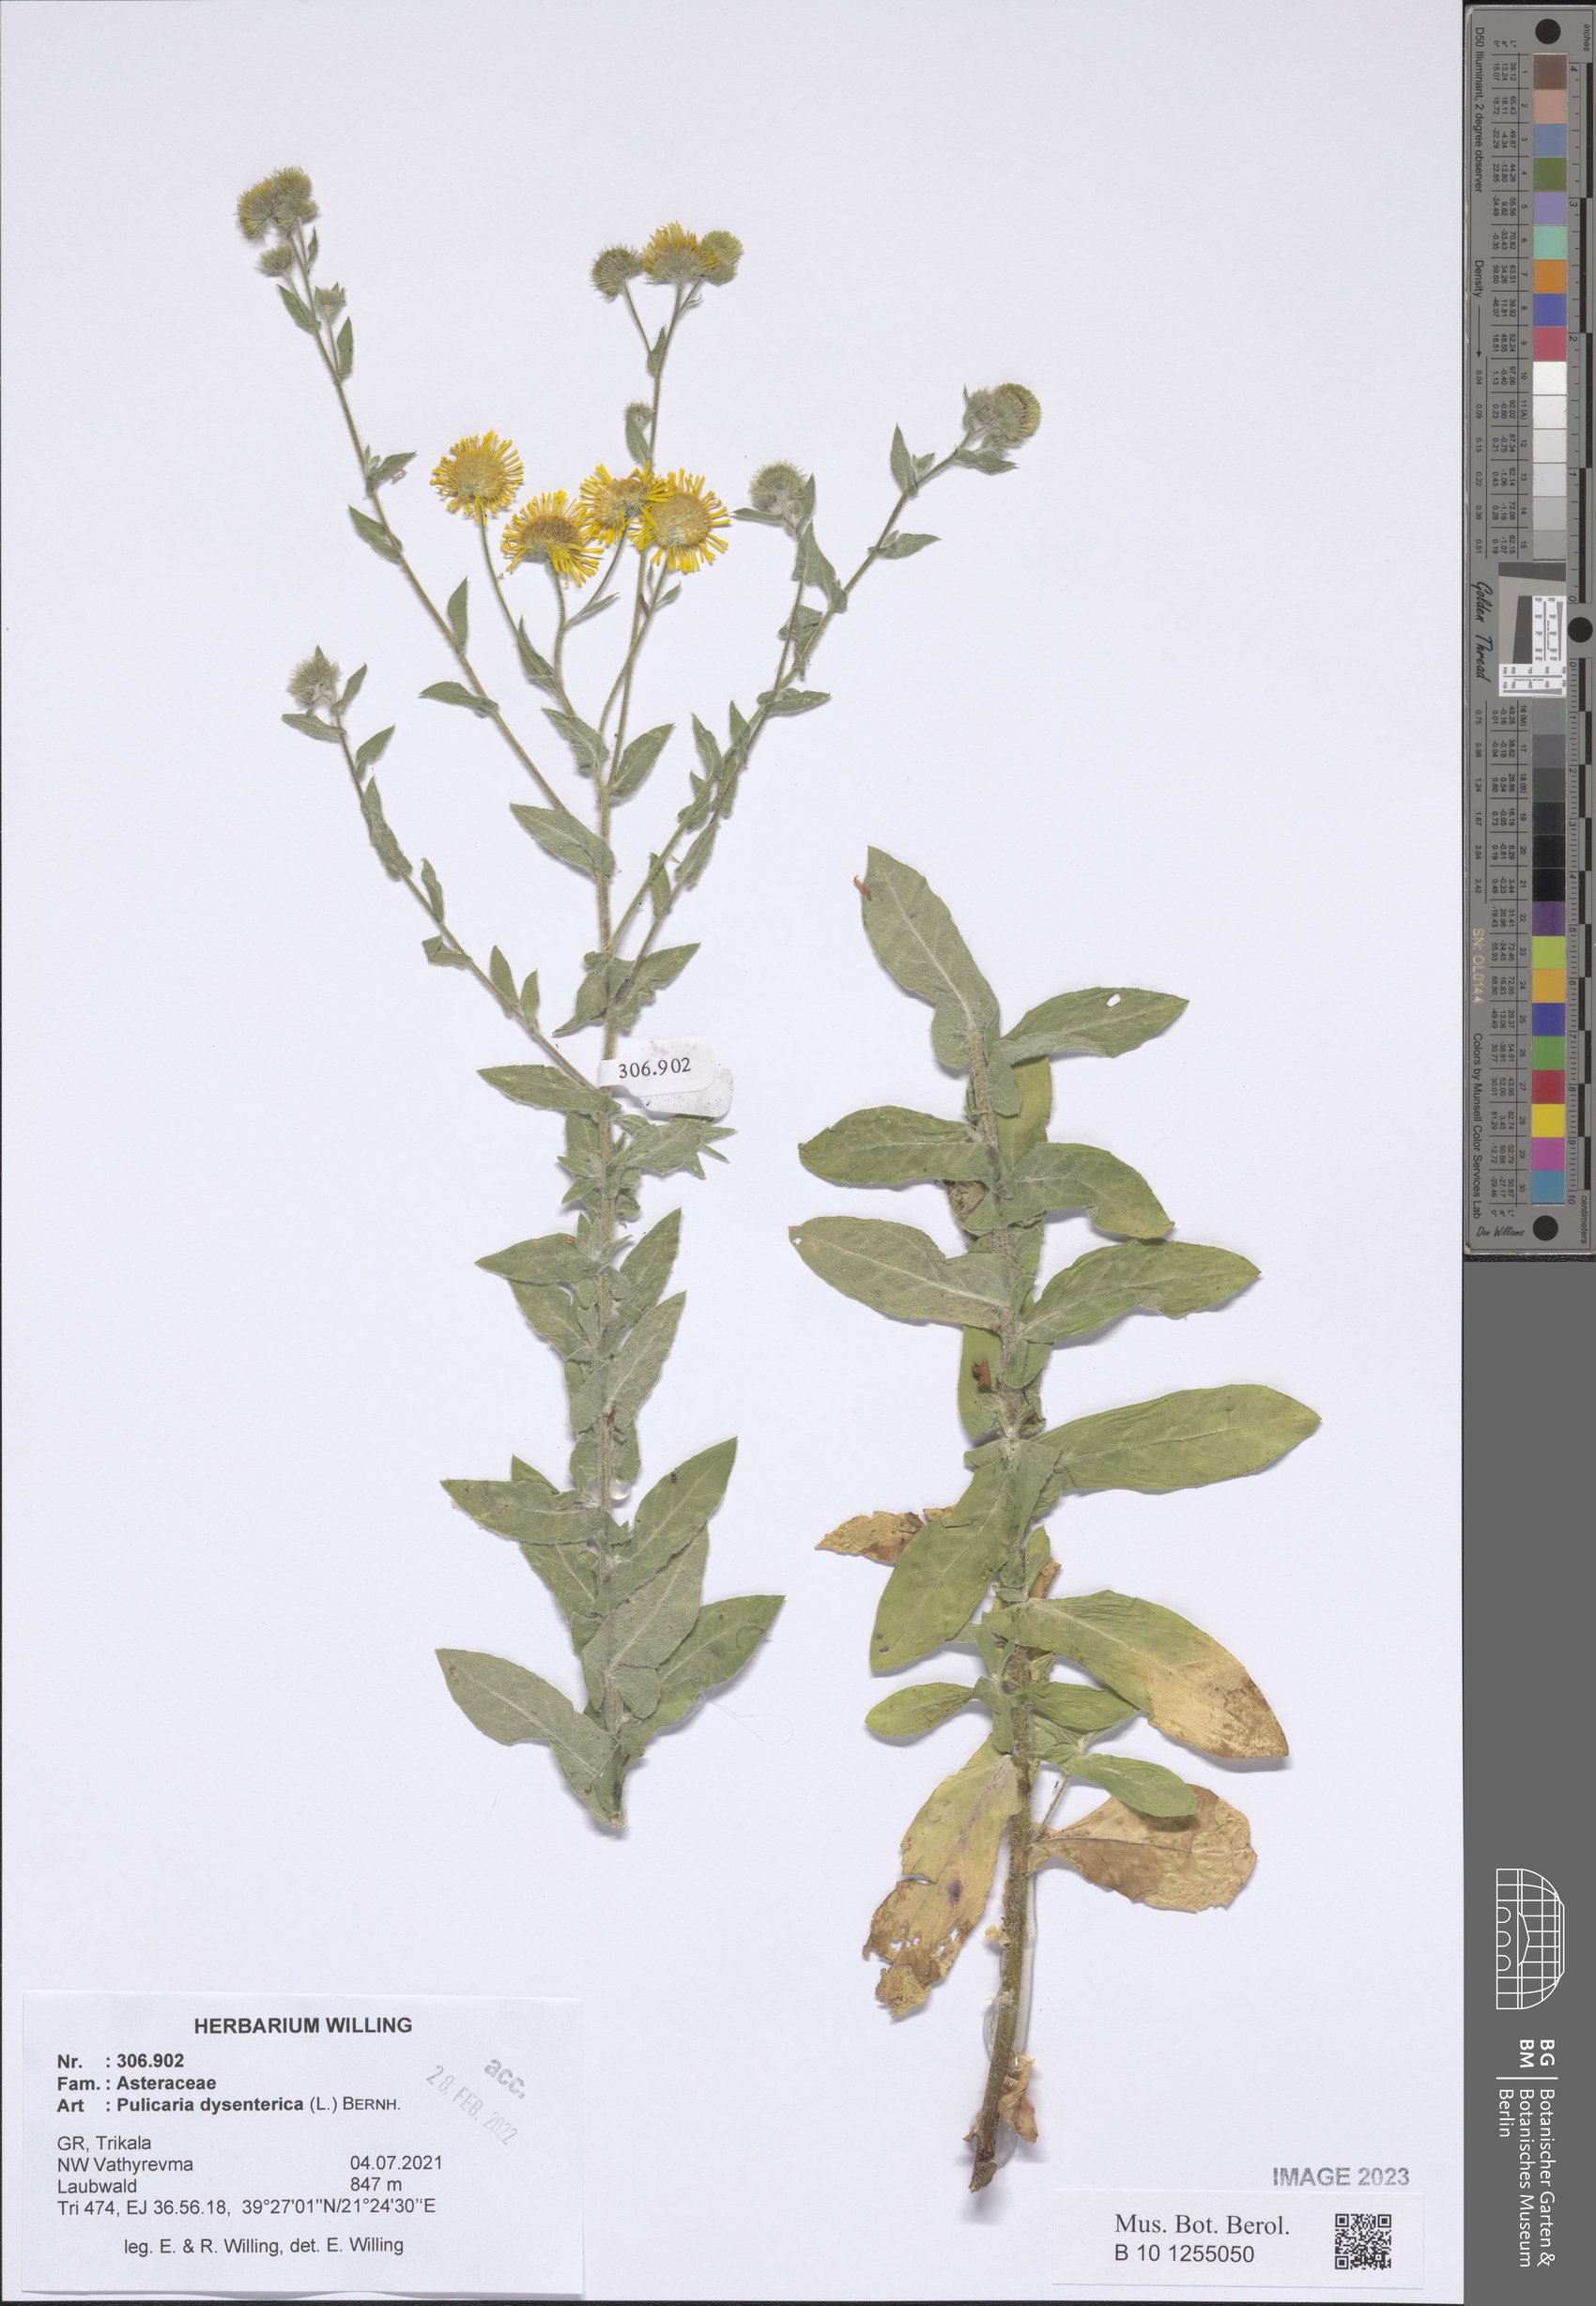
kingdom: Plantae
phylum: Tracheophyta
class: Magnoliopsida
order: Asterales
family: Asteraceae
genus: Pulicaria
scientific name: Pulicaria dysenterica
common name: Common fleabane
